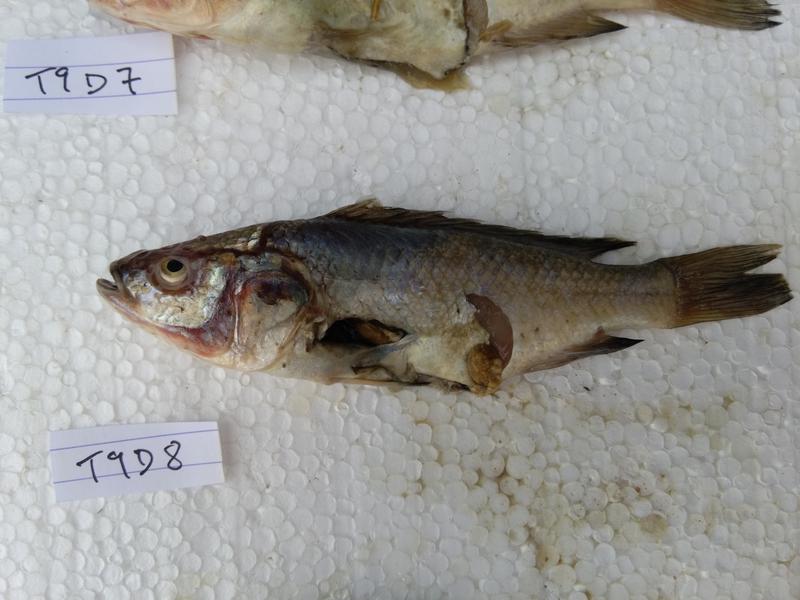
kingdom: Animalia
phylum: Chordata
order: Perciformes
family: Cichlidae
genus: Oreochromis
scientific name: Oreochromis amphimelas
